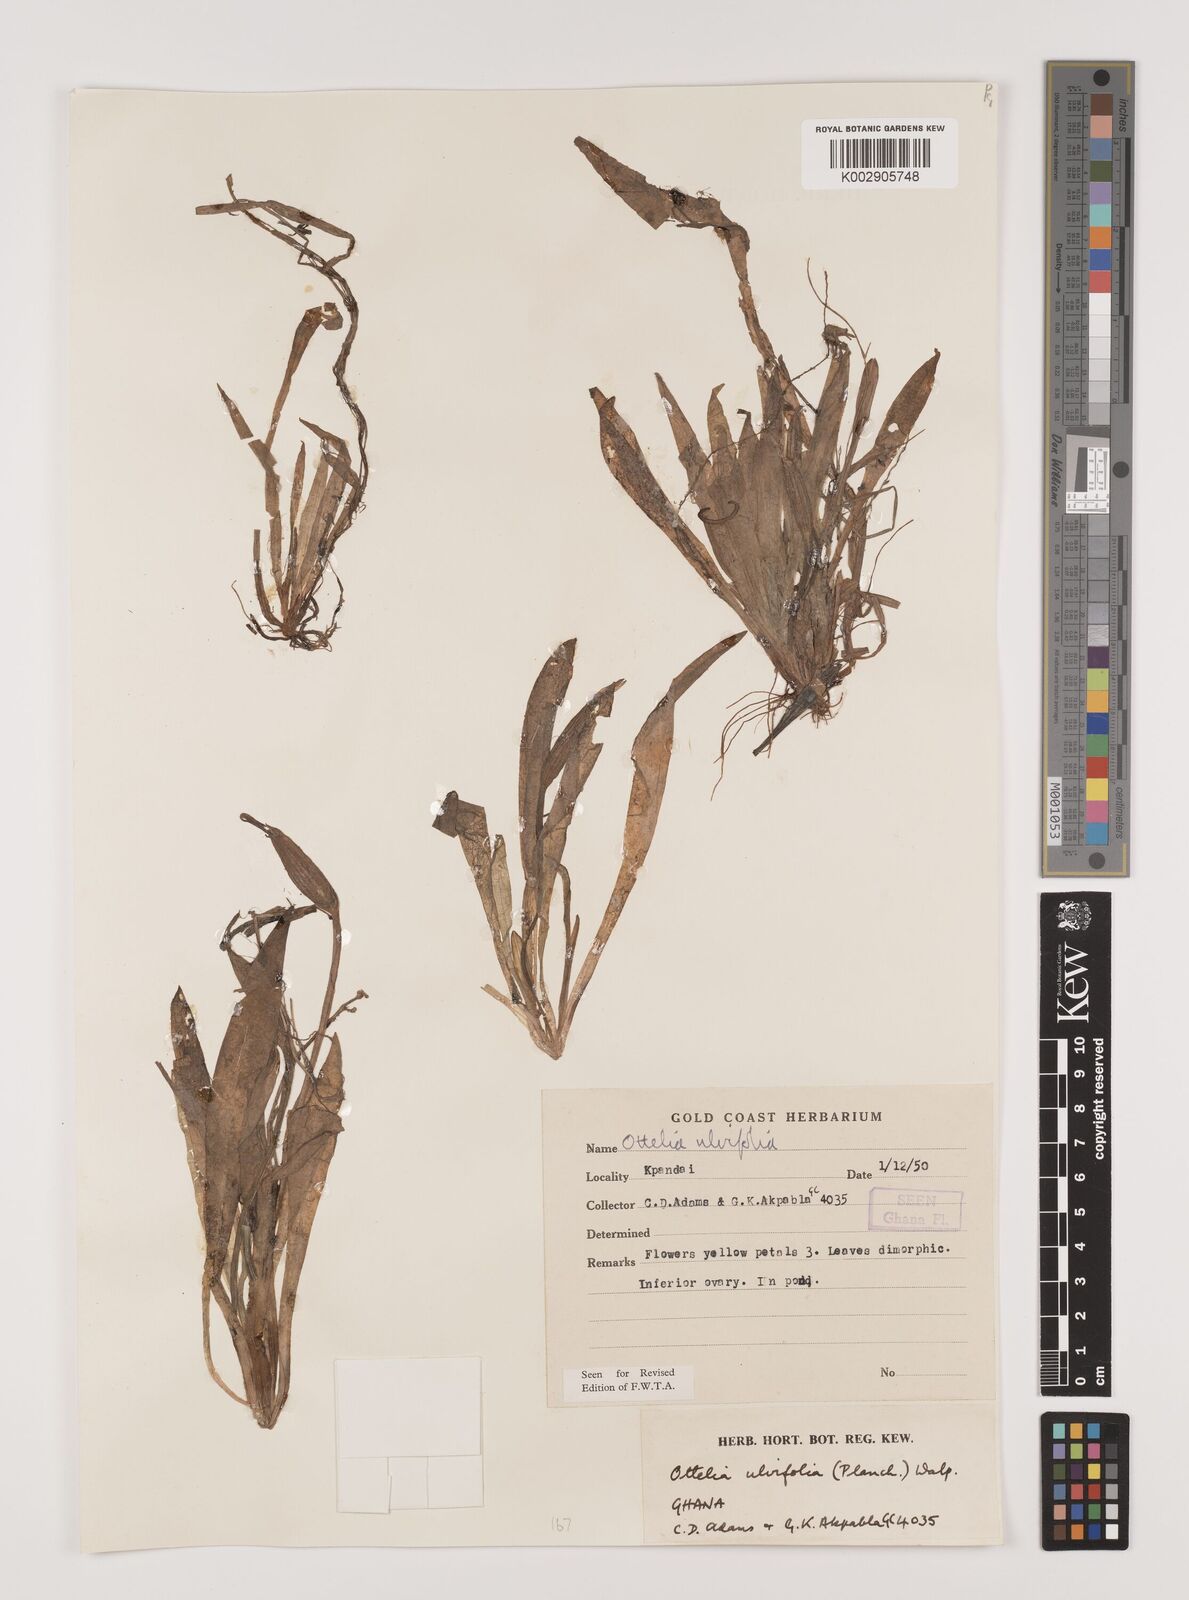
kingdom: Plantae
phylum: Tracheophyta
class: Liliopsida
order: Alismatales
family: Hydrocharitaceae
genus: Ottelia
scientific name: Ottelia ulvifolia
